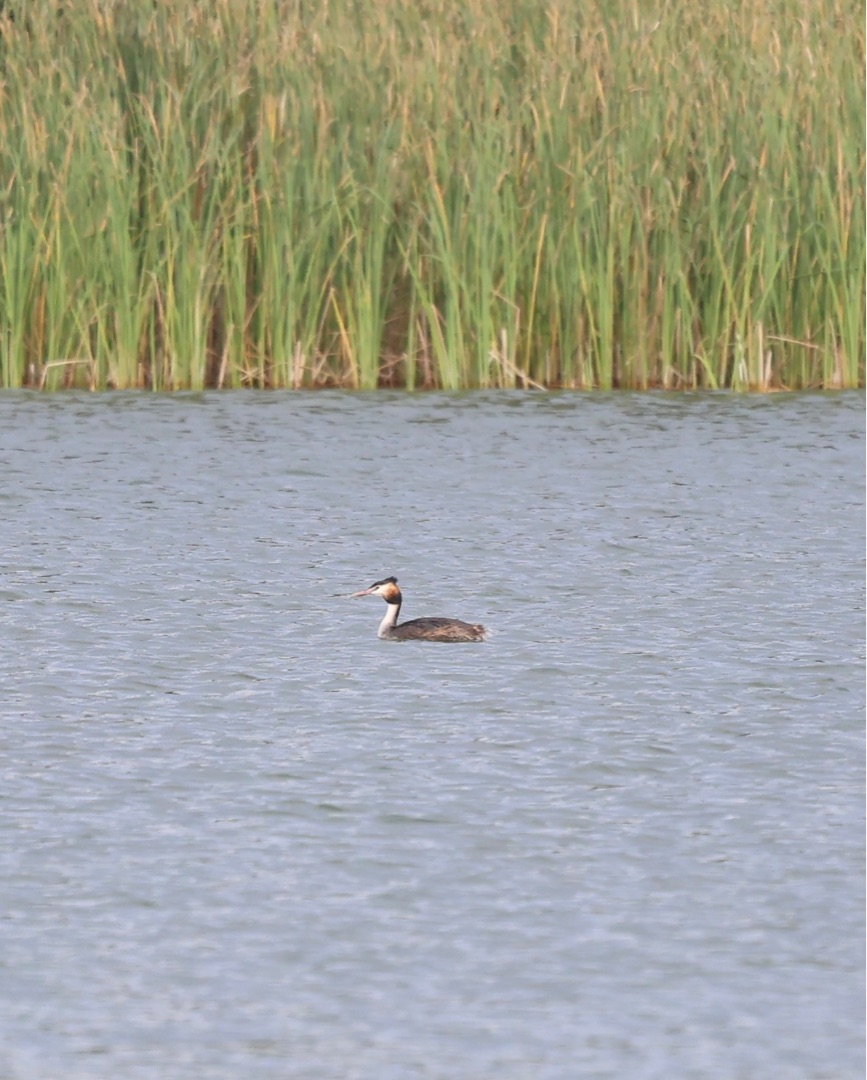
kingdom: Animalia
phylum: Chordata
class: Aves
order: Podicipediformes
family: Podicipedidae
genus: Podiceps
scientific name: Podiceps cristatus
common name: Toppet lappedykker
